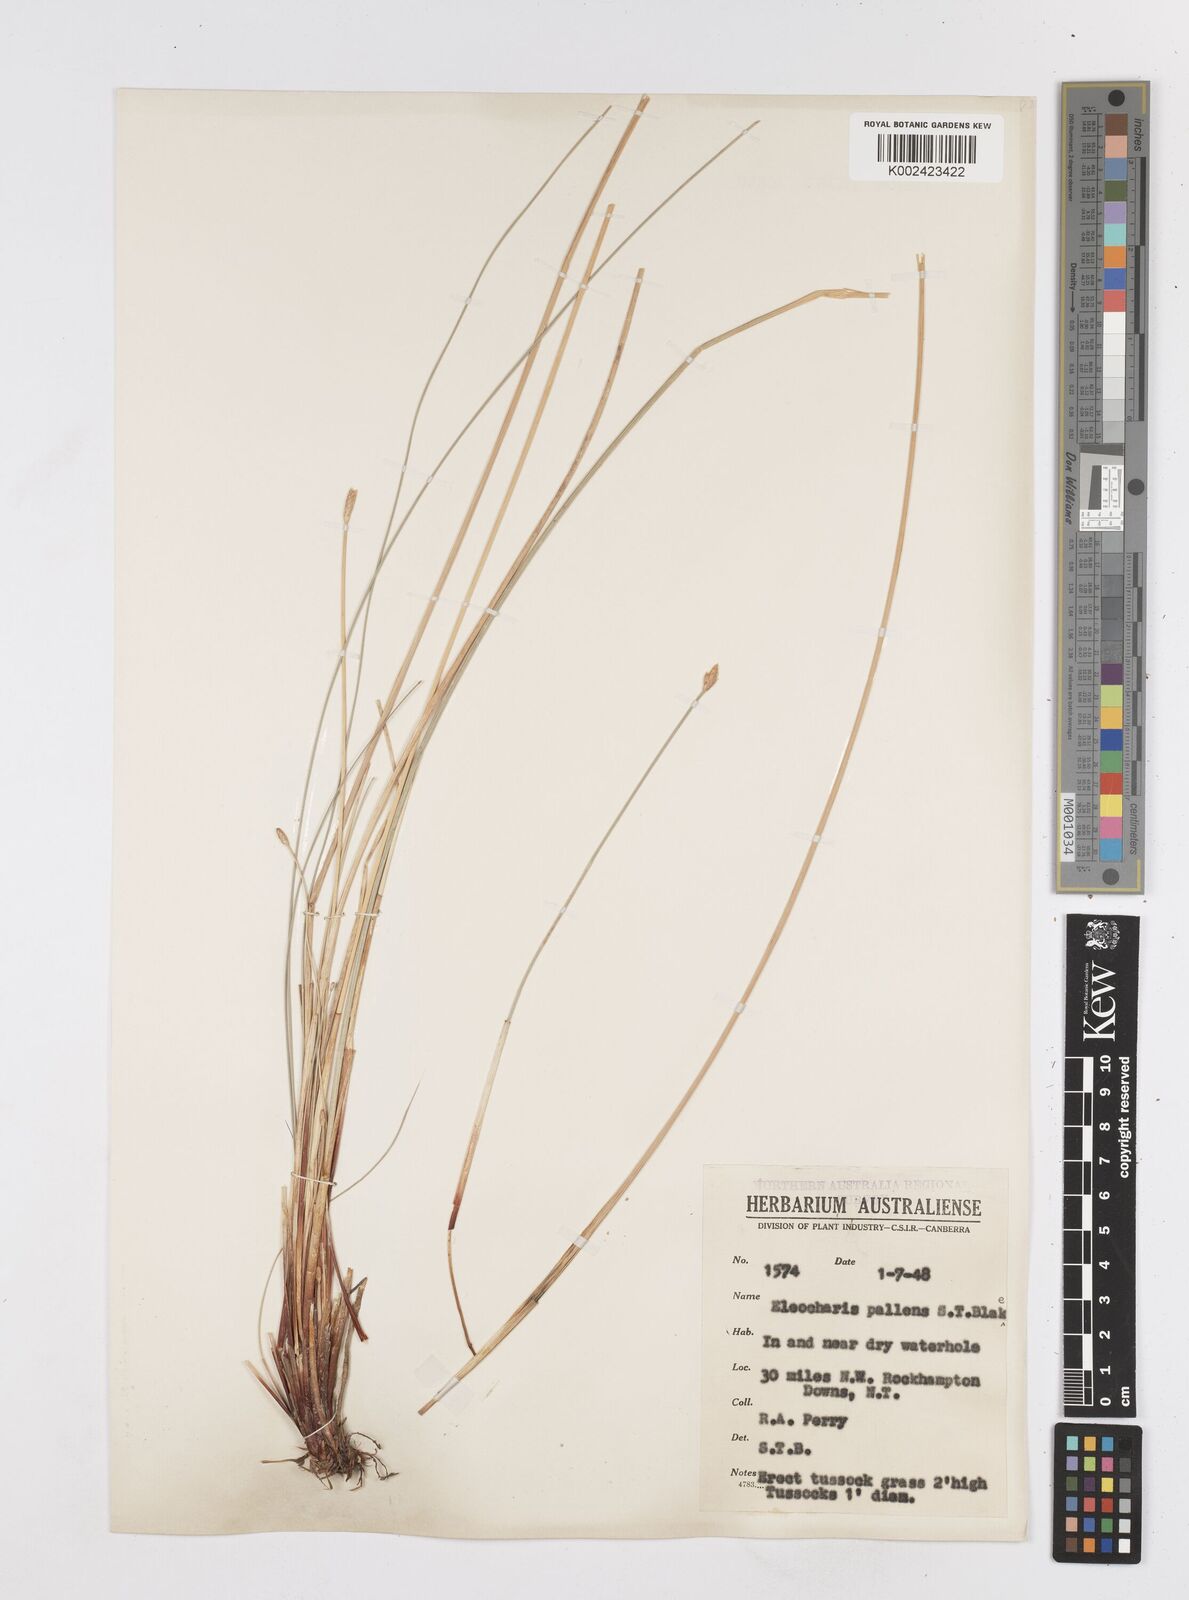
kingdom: Plantae
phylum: Tracheophyta
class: Liliopsida
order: Poales
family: Cyperaceae
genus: Eleocharis
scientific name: Eleocharis acuta
